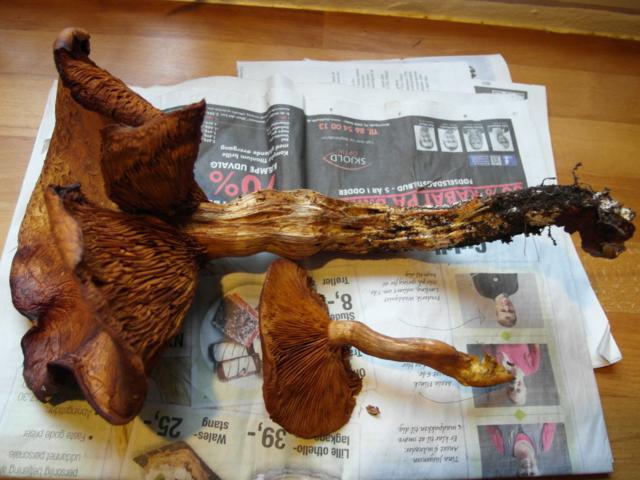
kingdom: Fungi
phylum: Basidiomycota
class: Agaricomycetes
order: Agaricales
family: Hymenogastraceae
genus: Gymnopilus
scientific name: Gymnopilus spectabilis
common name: fibret flammehat
